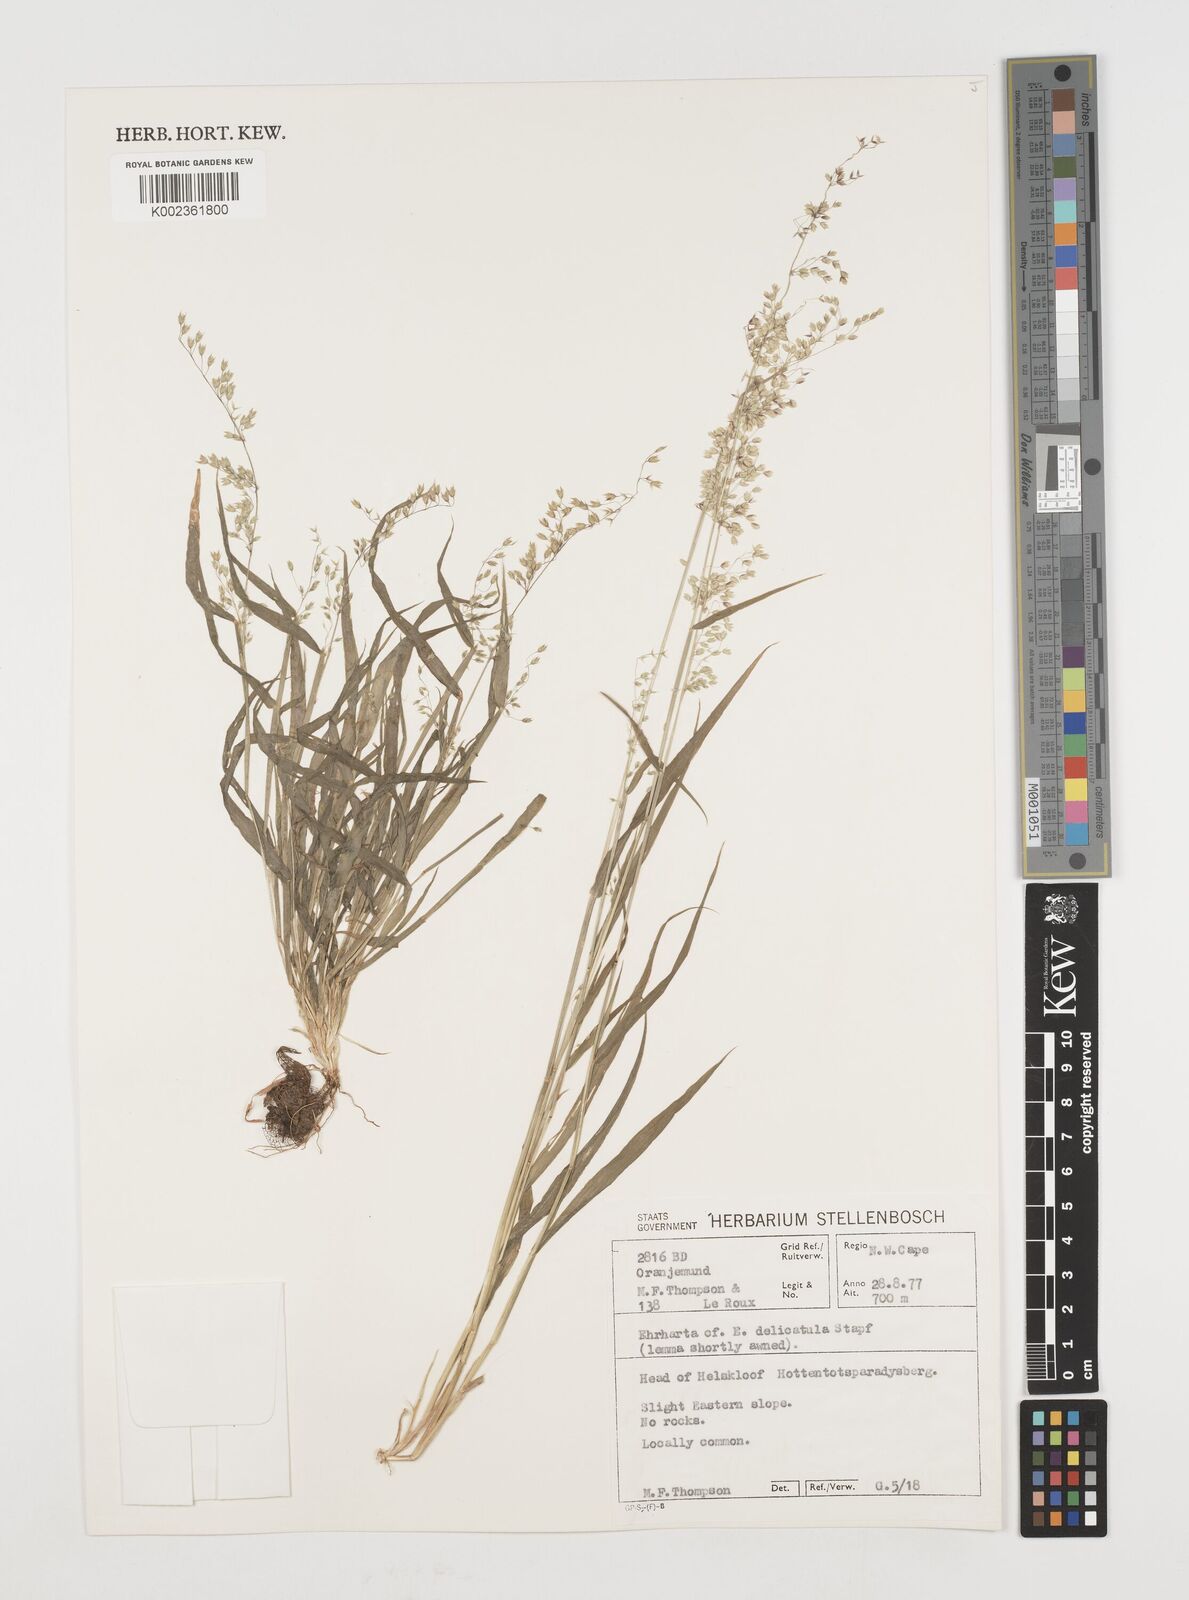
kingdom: Plantae
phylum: Tracheophyta
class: Liliopsida
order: Poales
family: Poaceae
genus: Ehrharta
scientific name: Ehrharta delicatula
